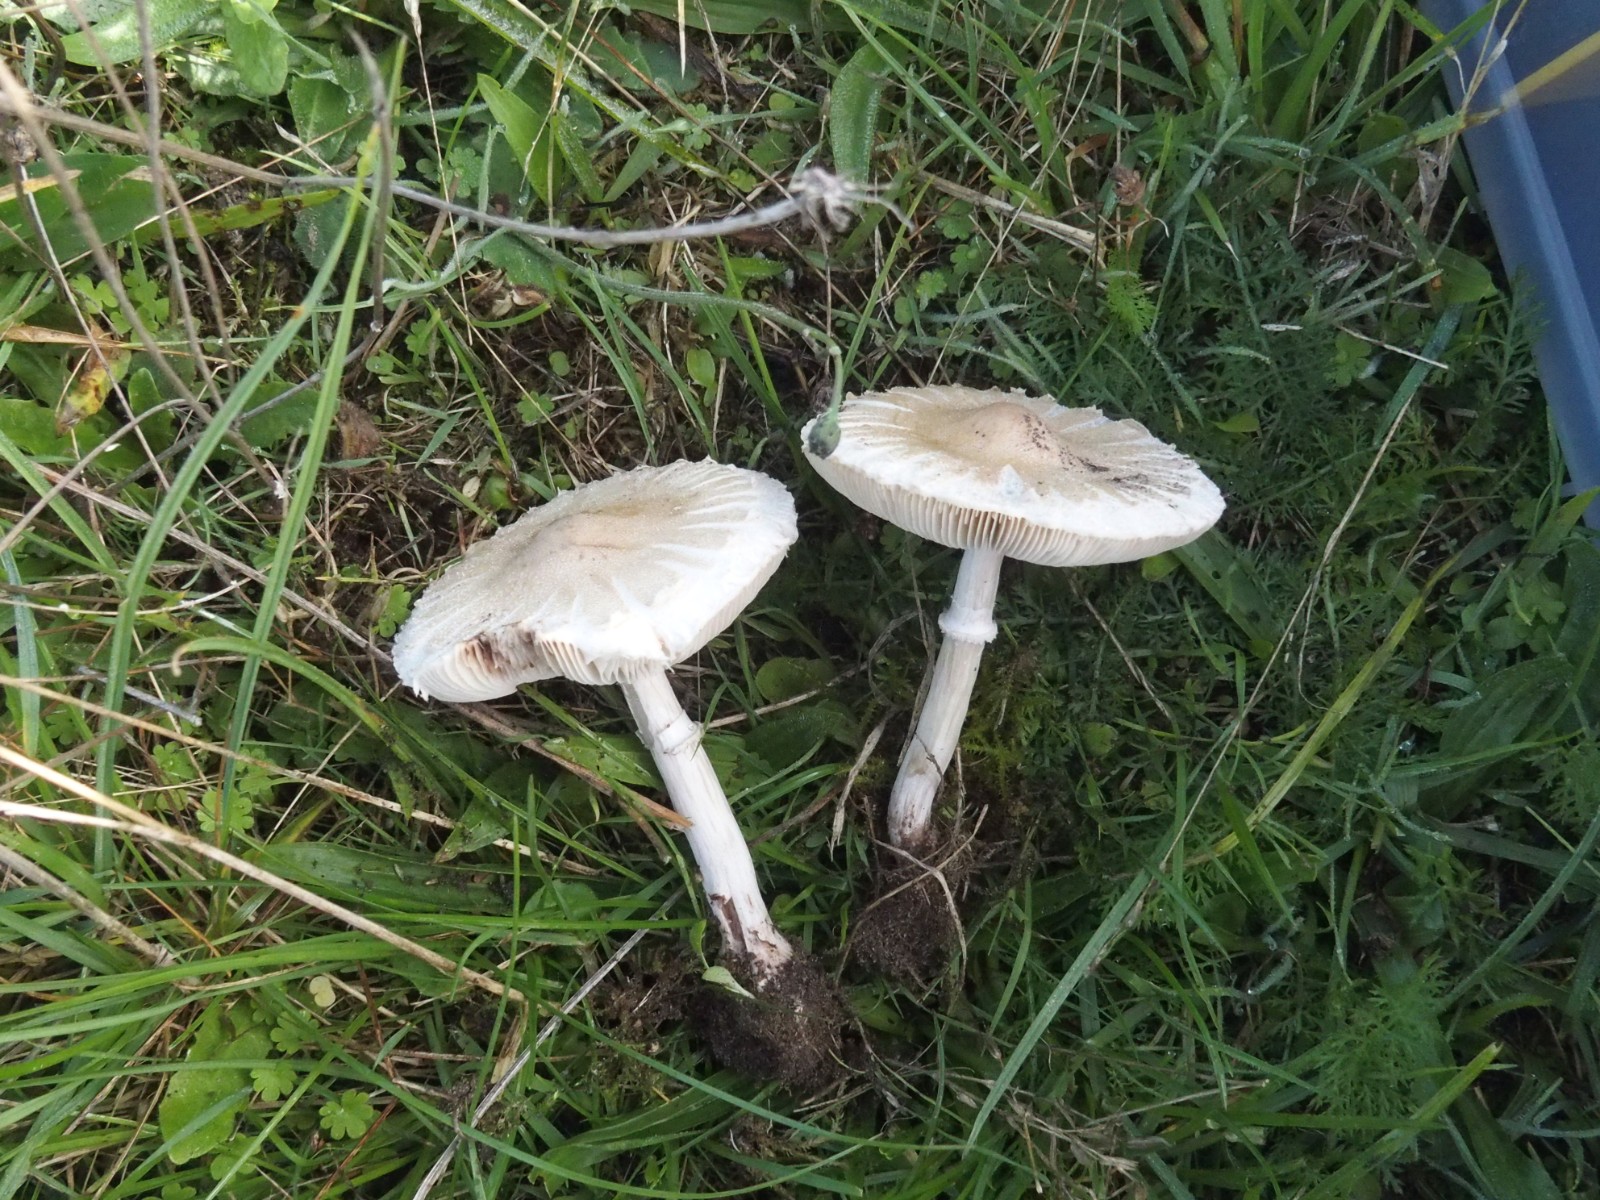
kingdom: Fungi
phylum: Basidiomycota
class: Agaricomycetes
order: Agaricales
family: Agaricaceae
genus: Macrolepiota
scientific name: Macrolepiota excoriata
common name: mark-kæmpeparasolhat
